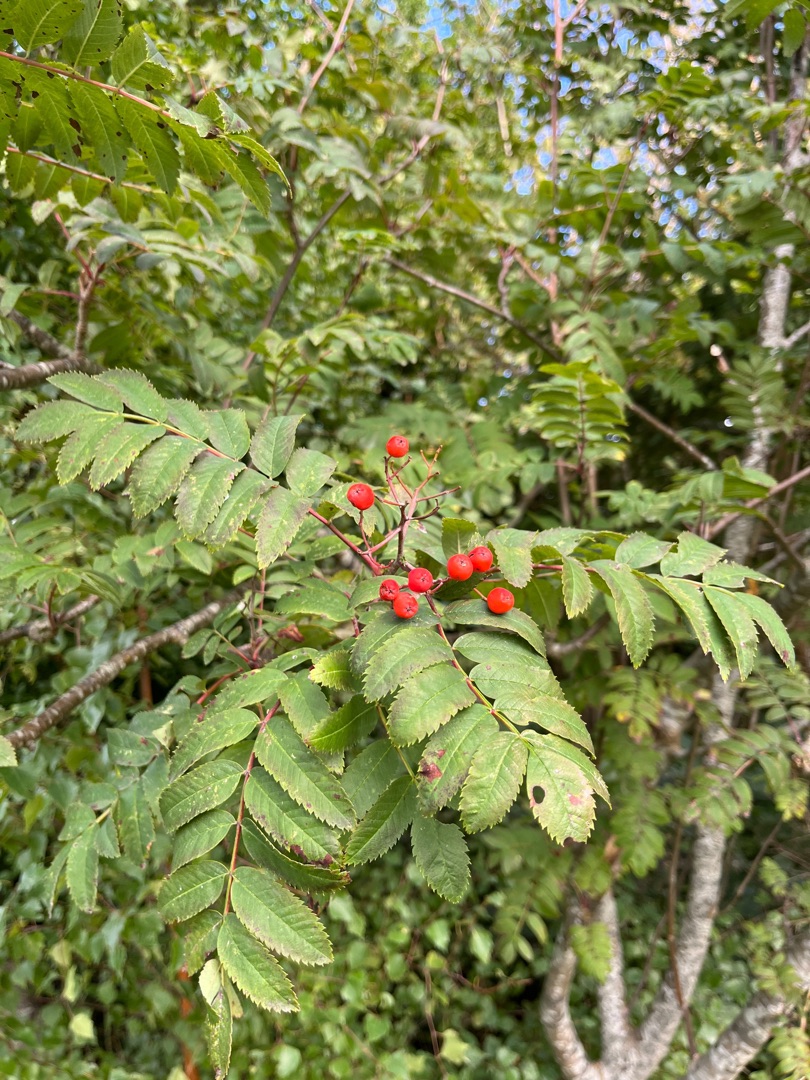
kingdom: Plantae
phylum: Tracheophyta
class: Magnoliopsida
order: Rosales
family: Rosaceae
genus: Sorbus
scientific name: Sorbus aucuparia
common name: Almindelig røn
